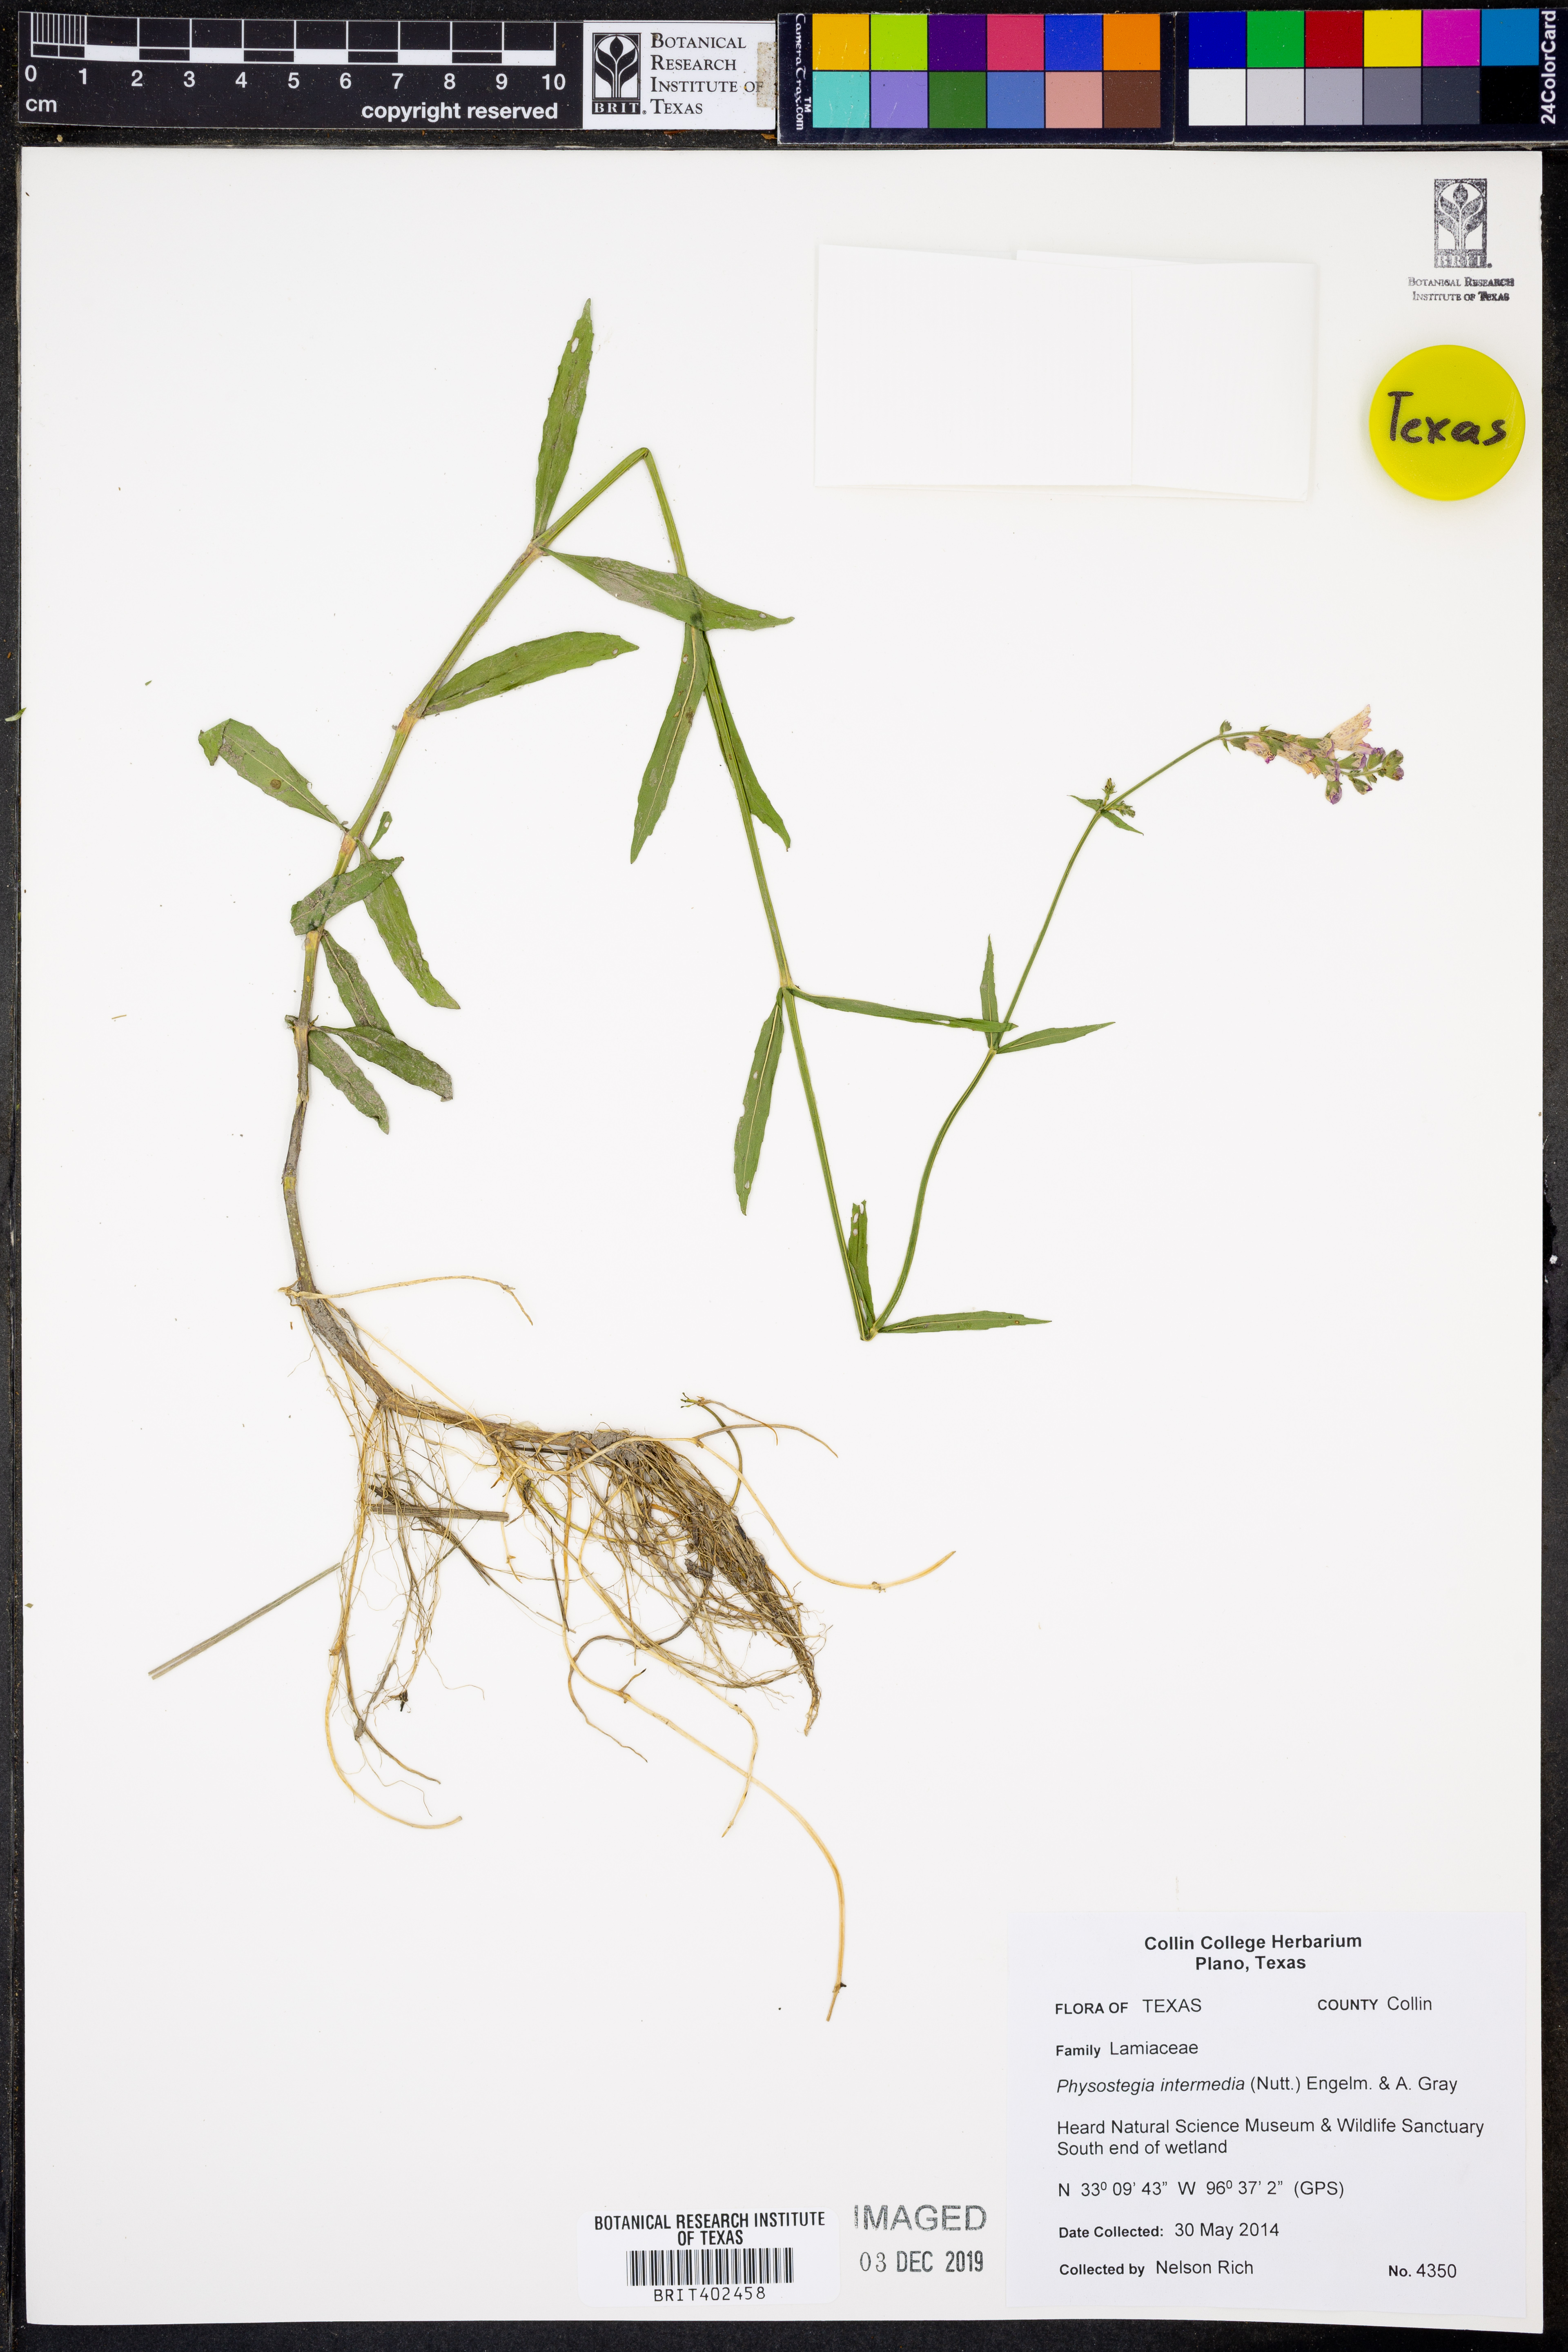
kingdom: Plantae
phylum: Tracheophyta
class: Magnoliopsida
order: Lamiales
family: Lamiaceae
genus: Physostegia
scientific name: Physostegia intermedia
